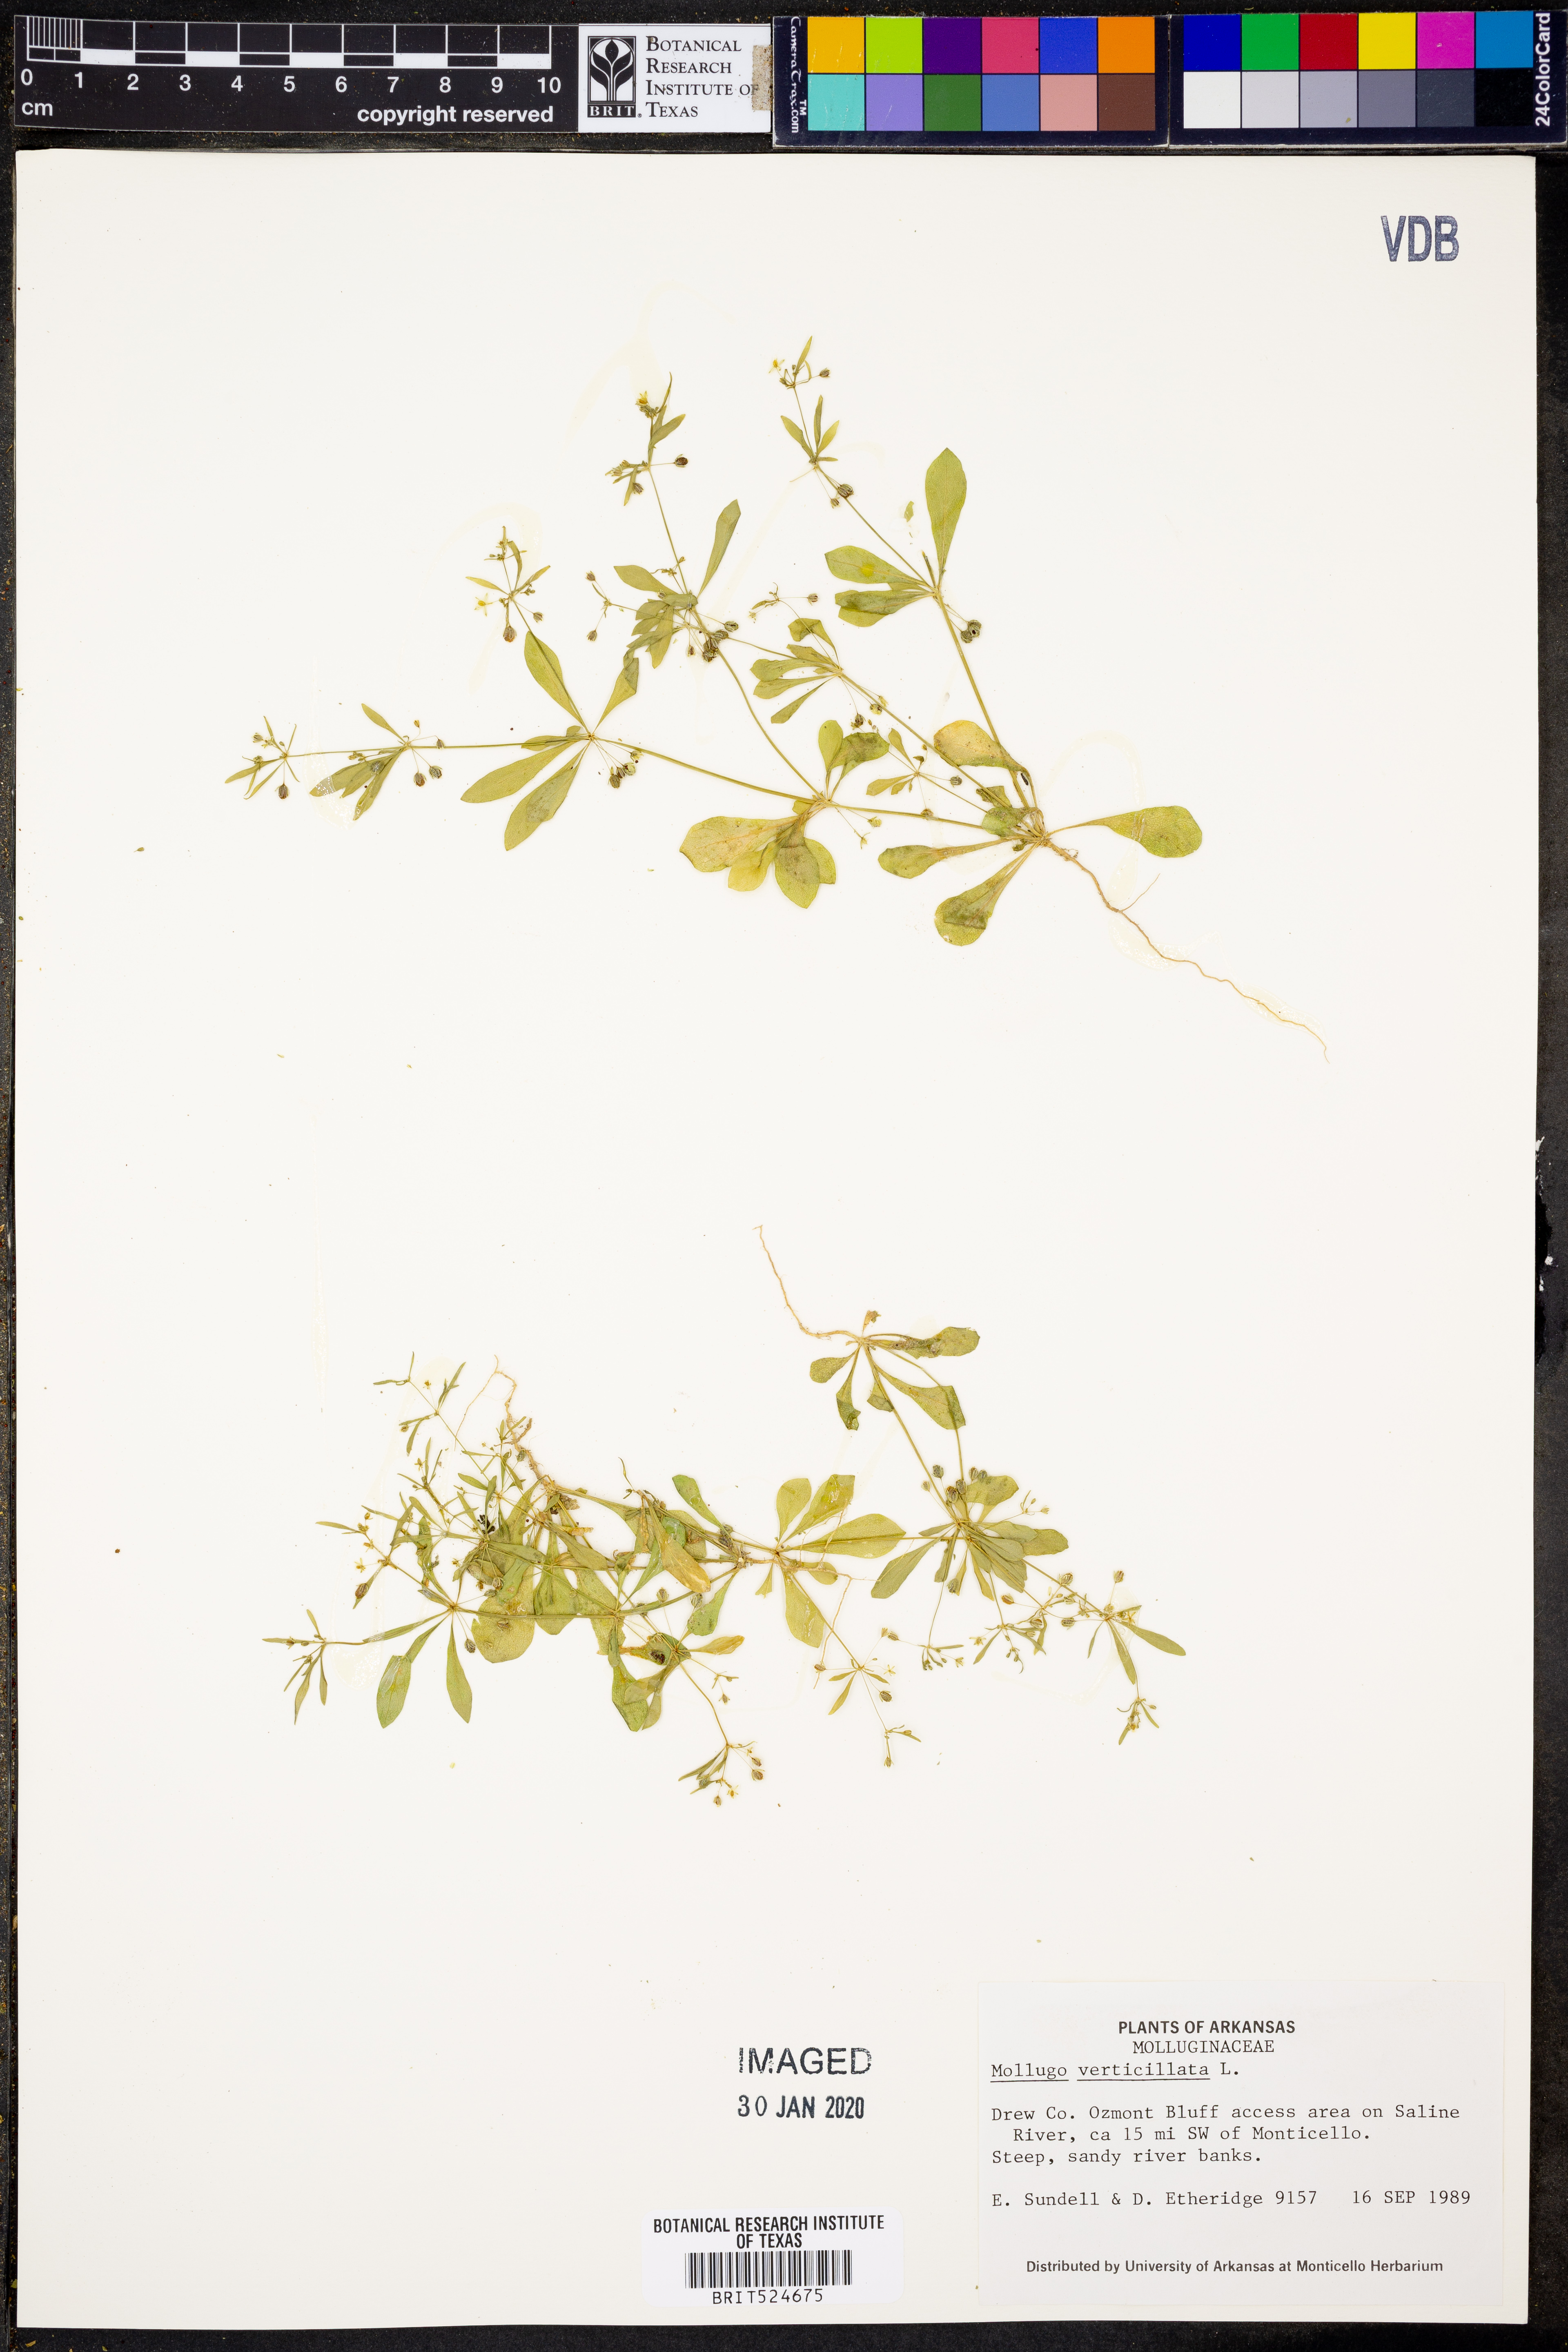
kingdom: Plantae
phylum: Tracheophyta
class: Magnoliopsida
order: Caryophyllales
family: Molluginaceae
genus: Mollugo
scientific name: Mollugo verticillata
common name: Green carpetweed
